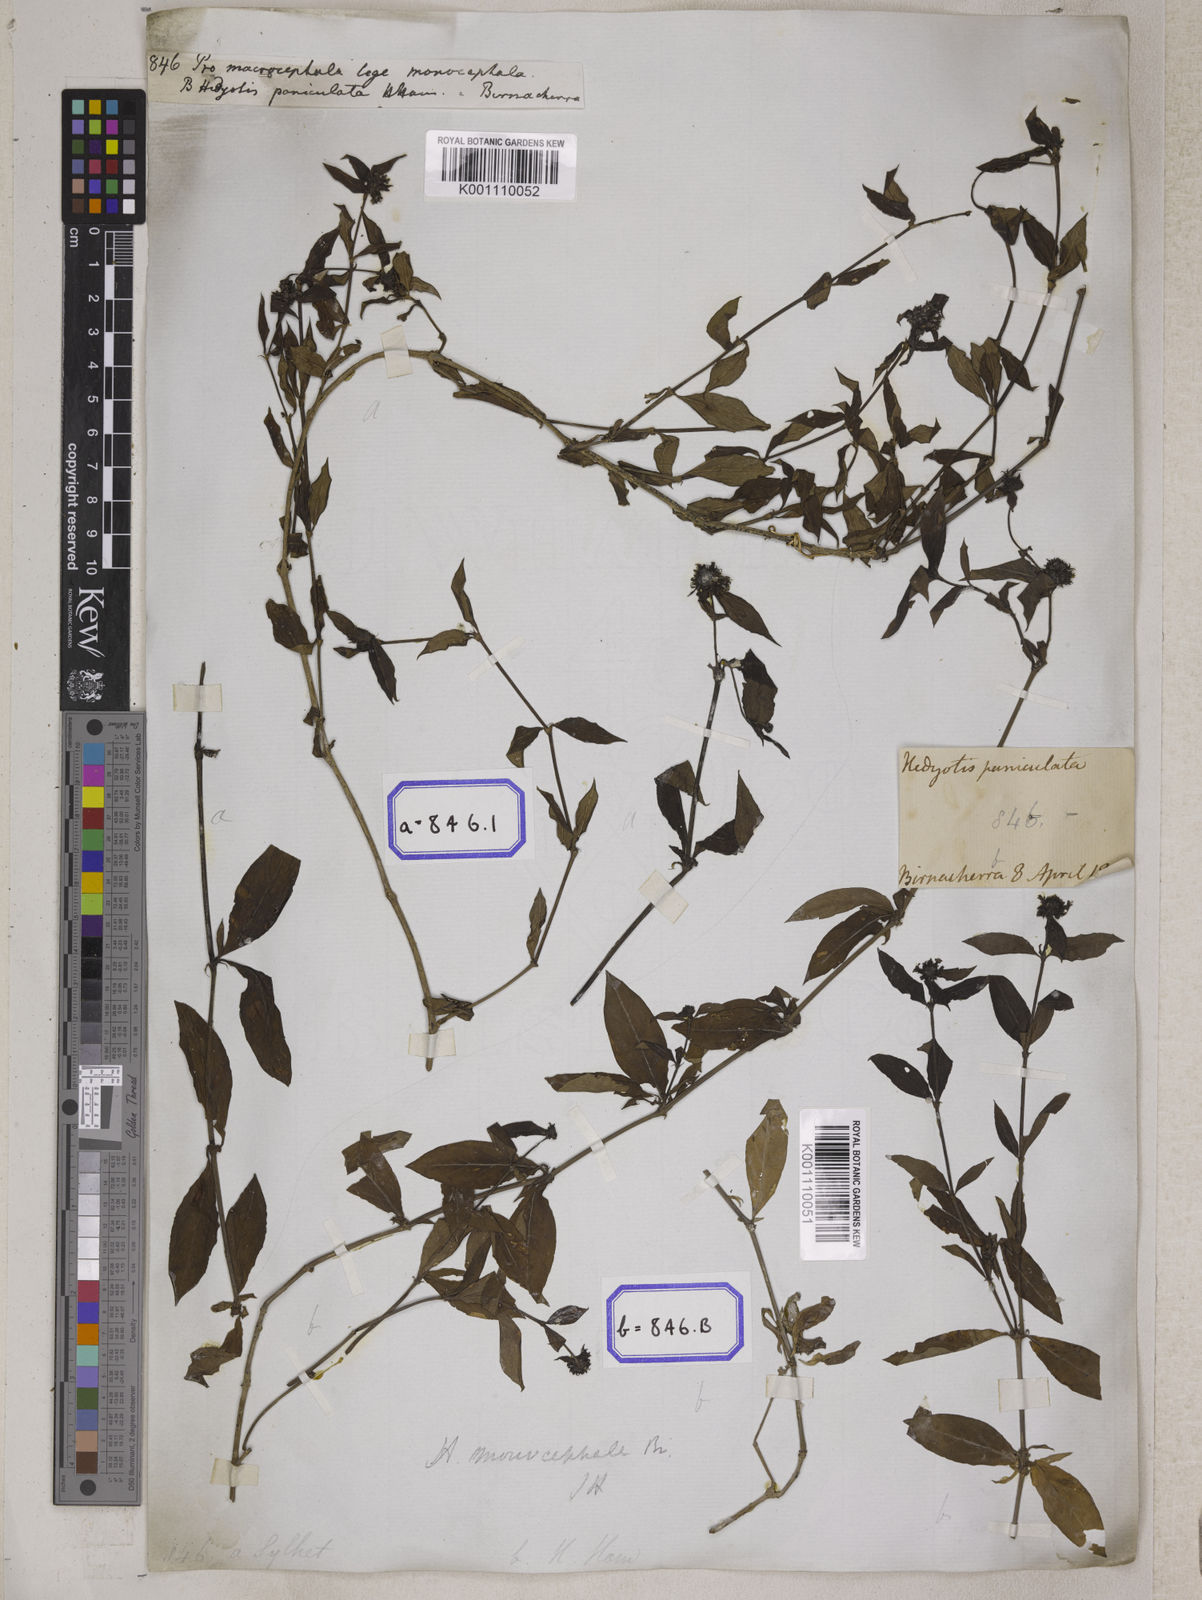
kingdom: Plantae
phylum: Tracheophyta
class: Magnoliopsida
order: Gentianales
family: Rubiaceae
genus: Hedyotis
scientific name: Hedyotis
